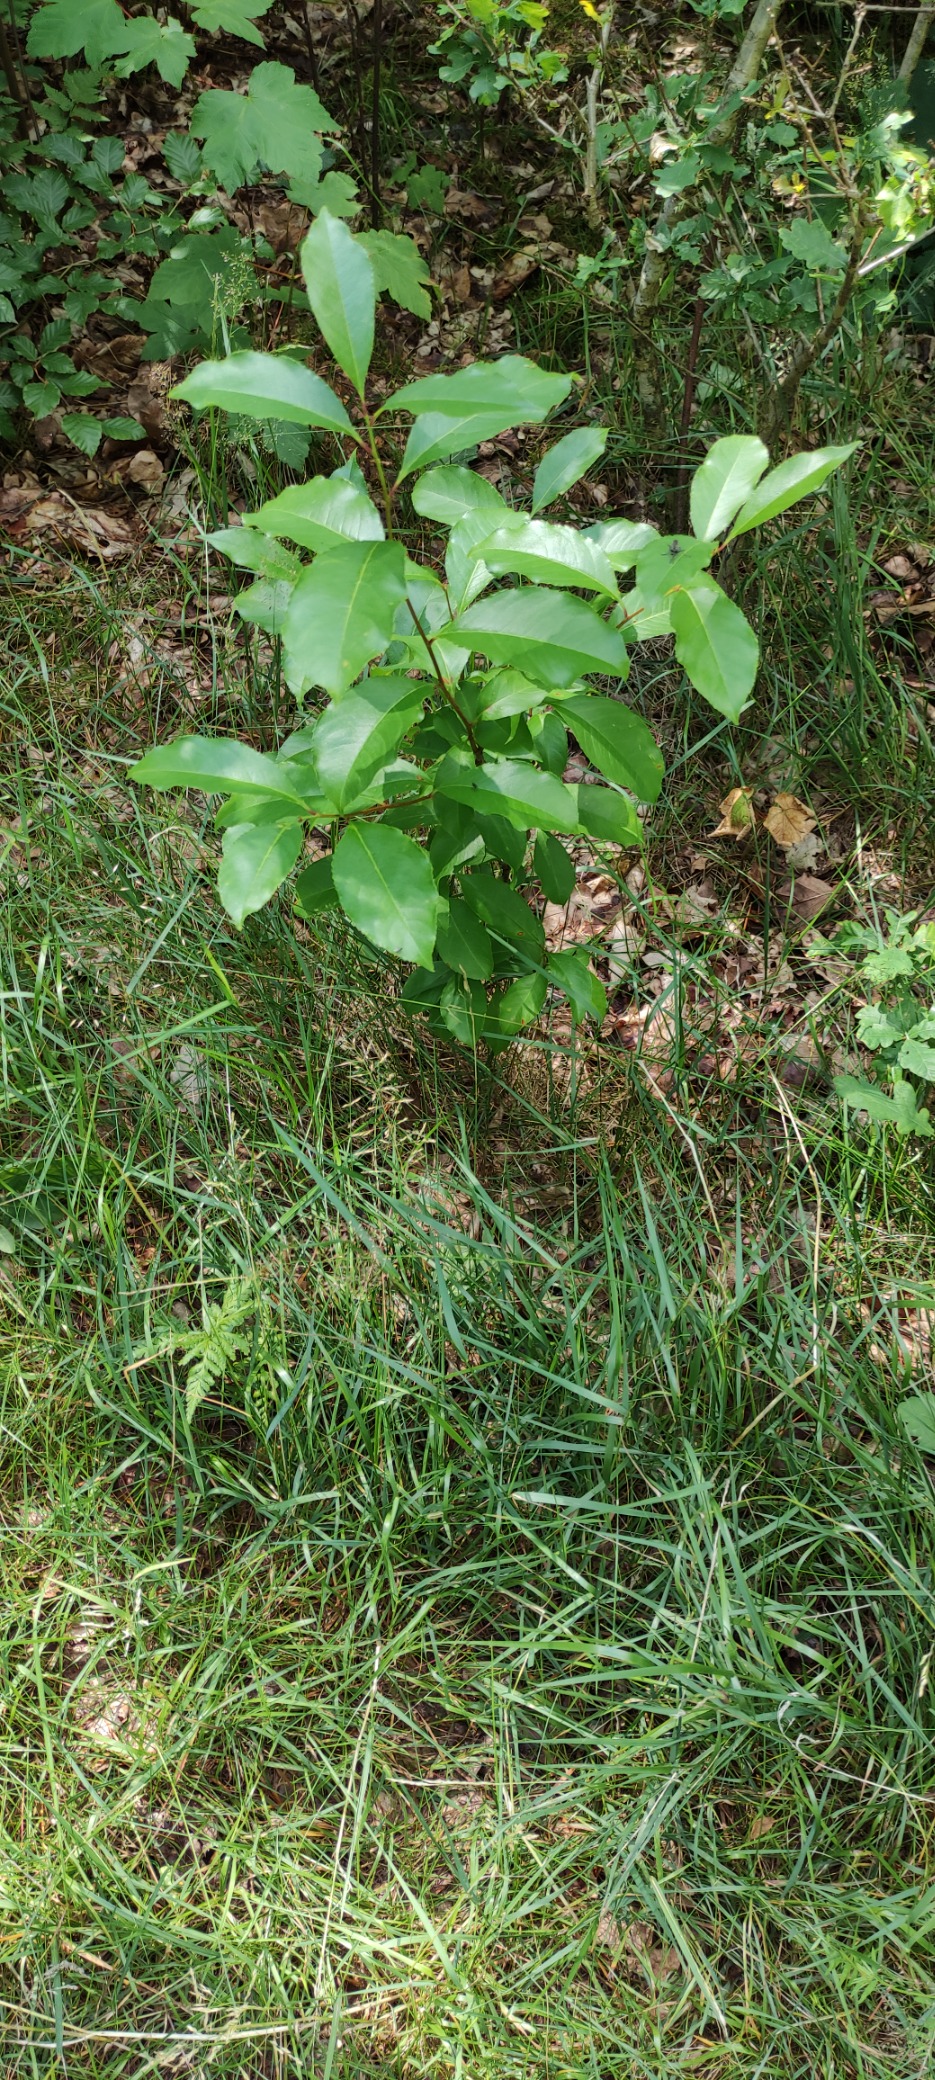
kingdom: Plantae
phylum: Tracheophyta
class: Magnoliopsida
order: Rosales
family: Rosaceae
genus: Prunus
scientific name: Prunus serotina
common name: Glansbladet hæg
